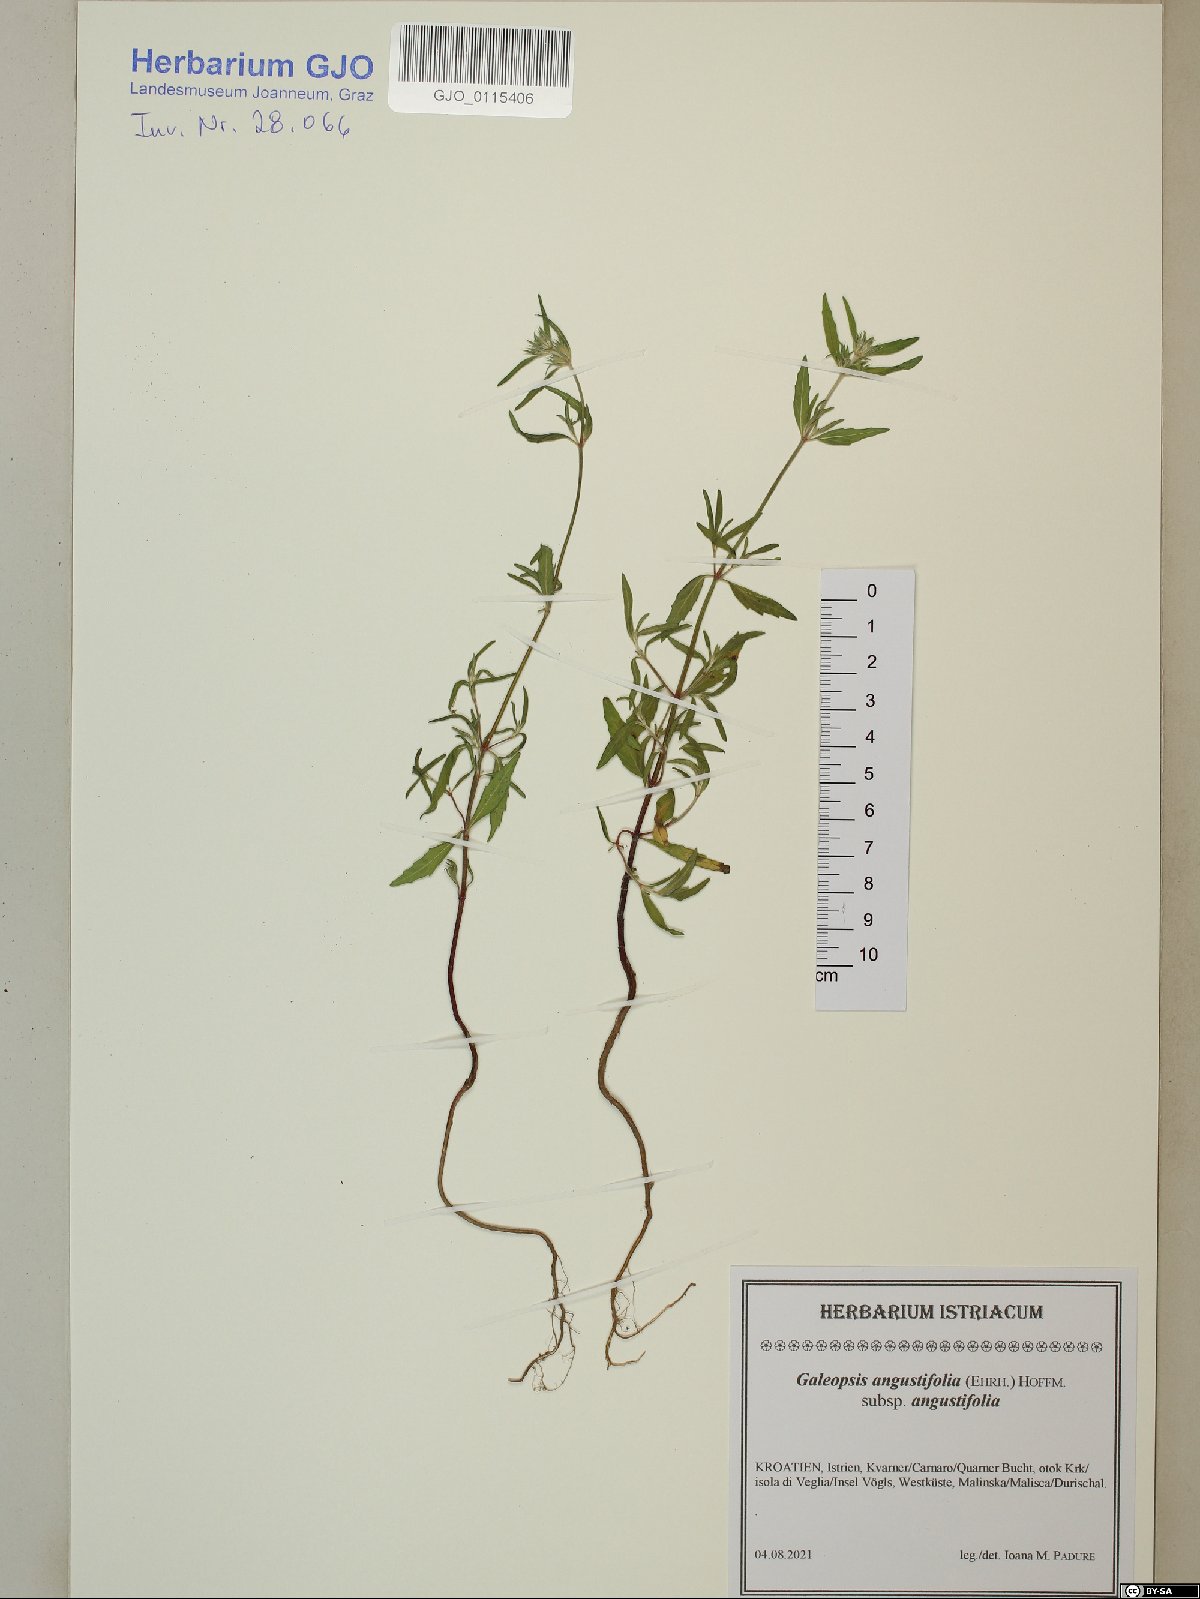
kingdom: Plantae
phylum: Tracheophyta
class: Magnoliopsida
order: Lamiales
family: Lamiaceae
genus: Galeopsis
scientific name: Galeopsis angustifolia
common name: Red hemp-nettle
